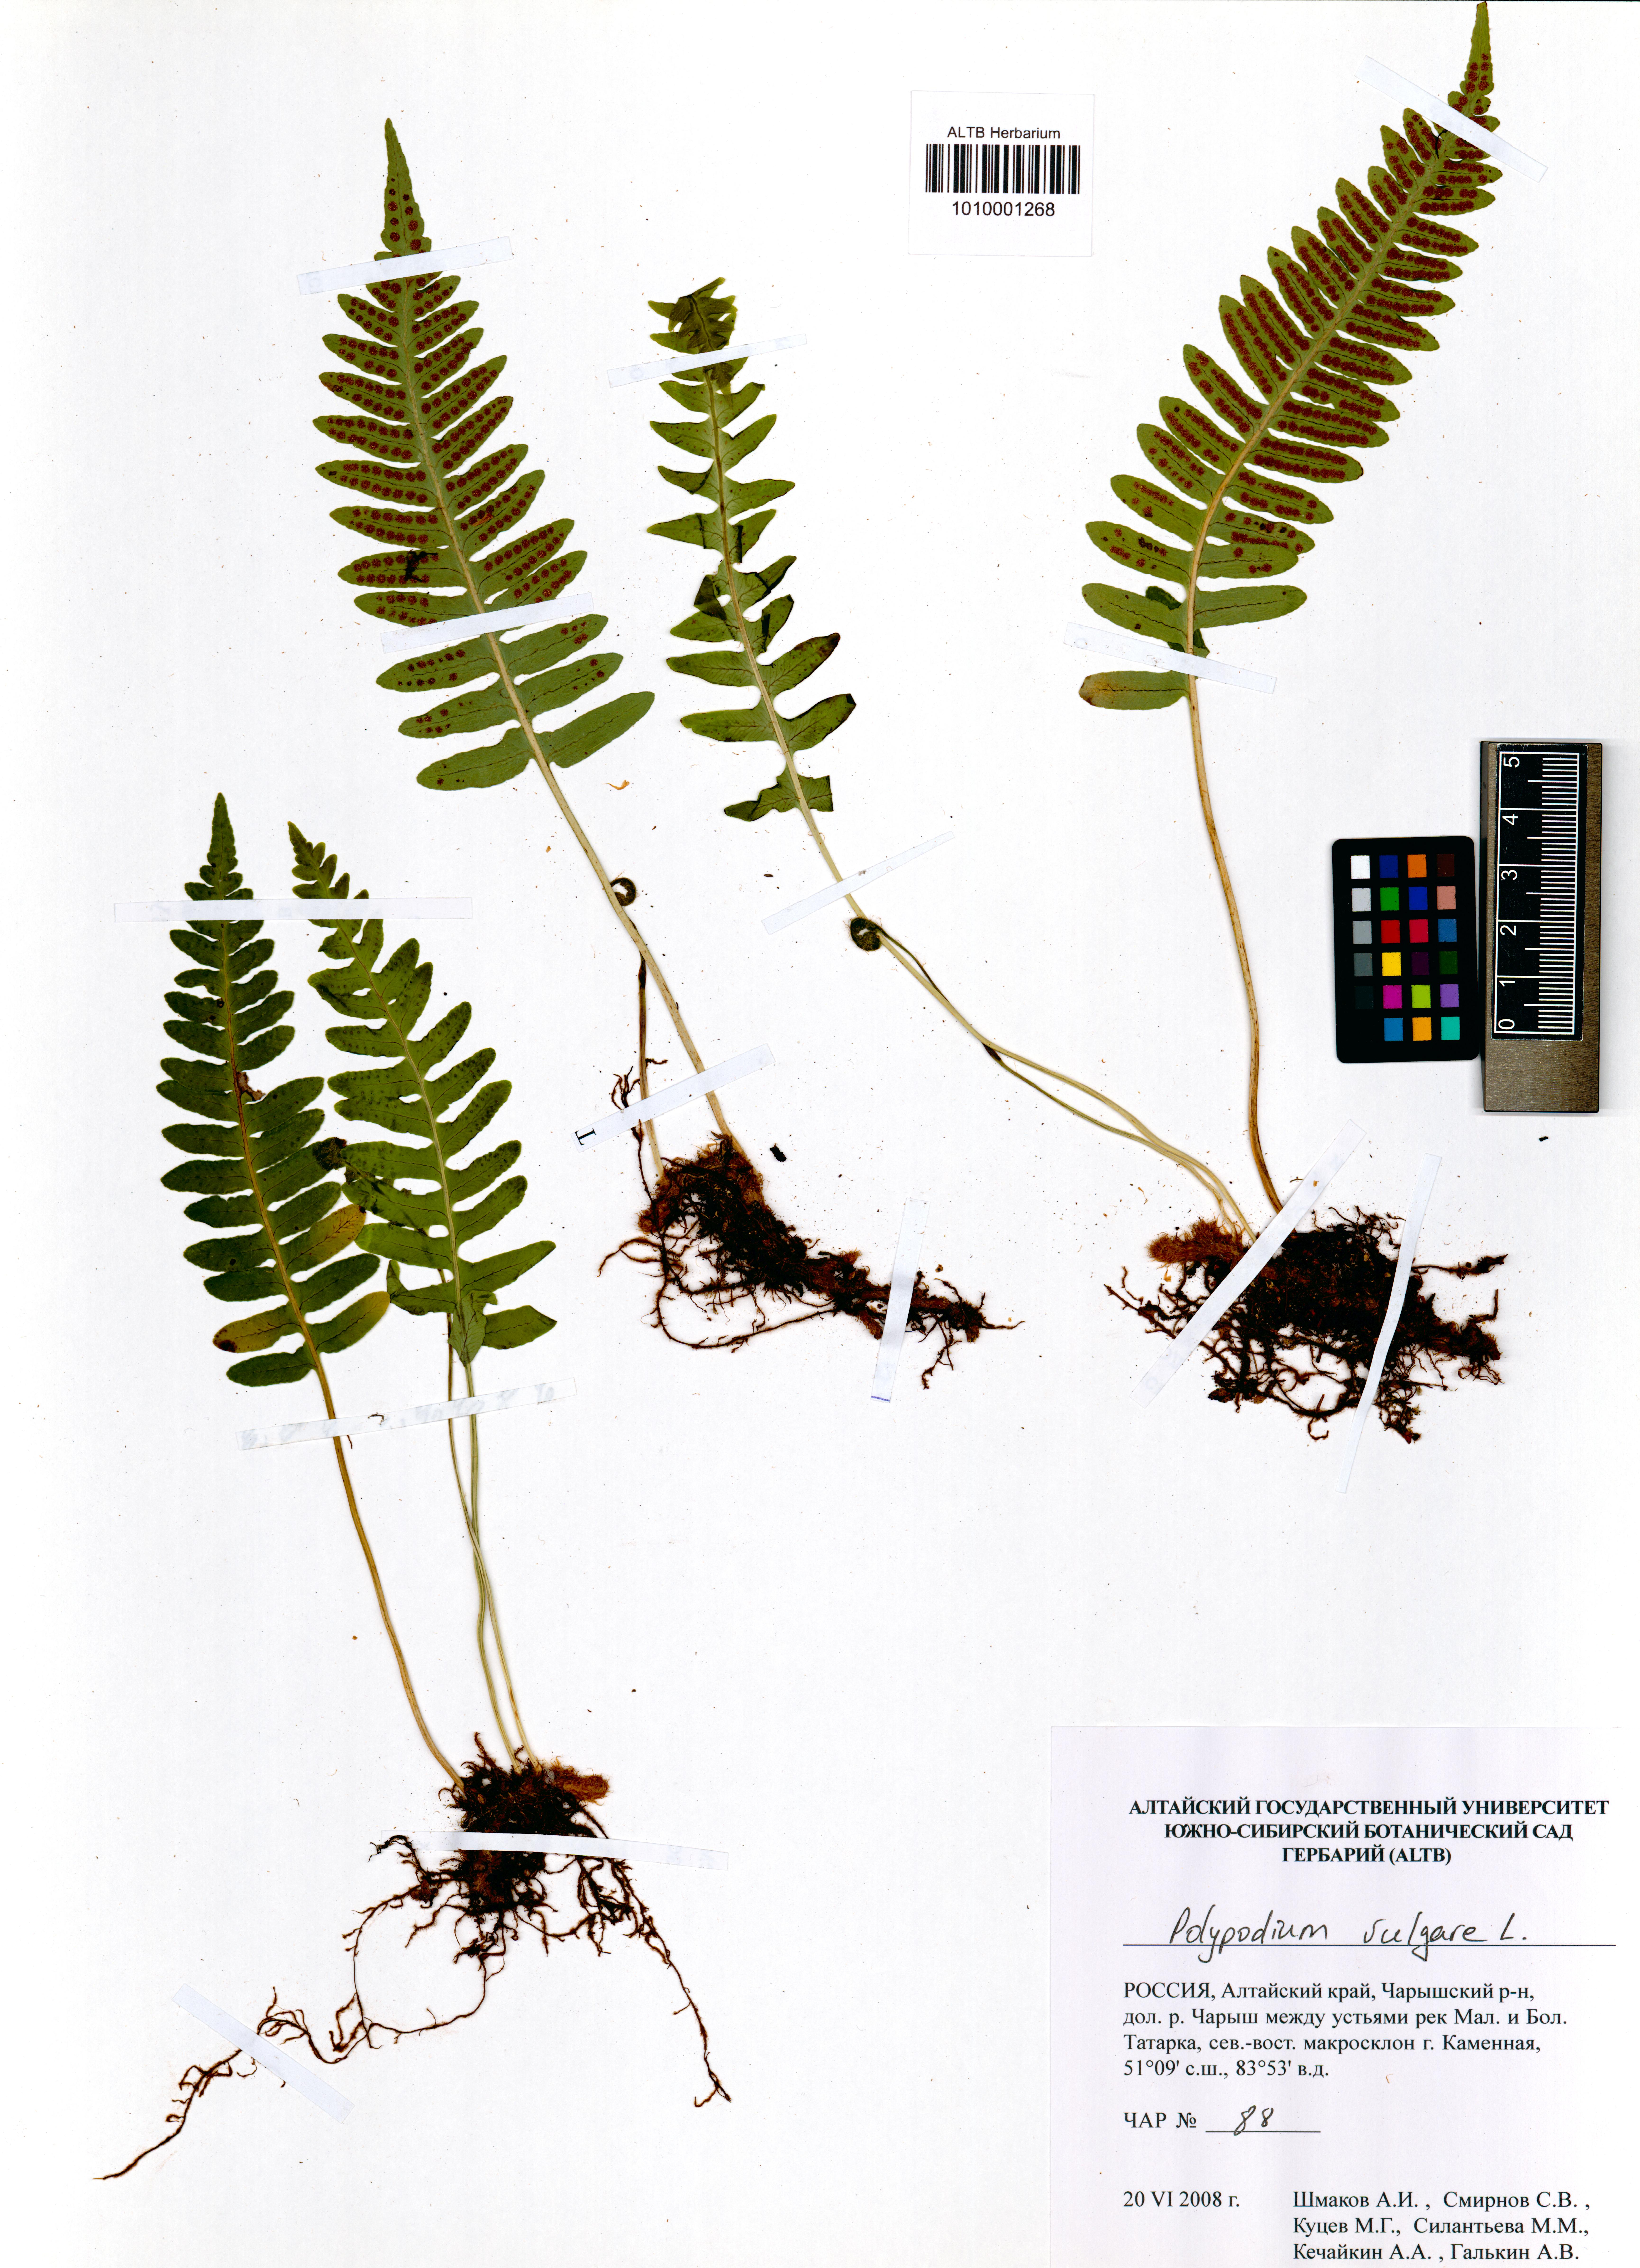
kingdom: Plantae
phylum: Tracheophyta
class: Polypodiopsida
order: Polypodiales
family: Polypodiaceae
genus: Polypodium
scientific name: Polypodium vulgare
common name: Common polypody
